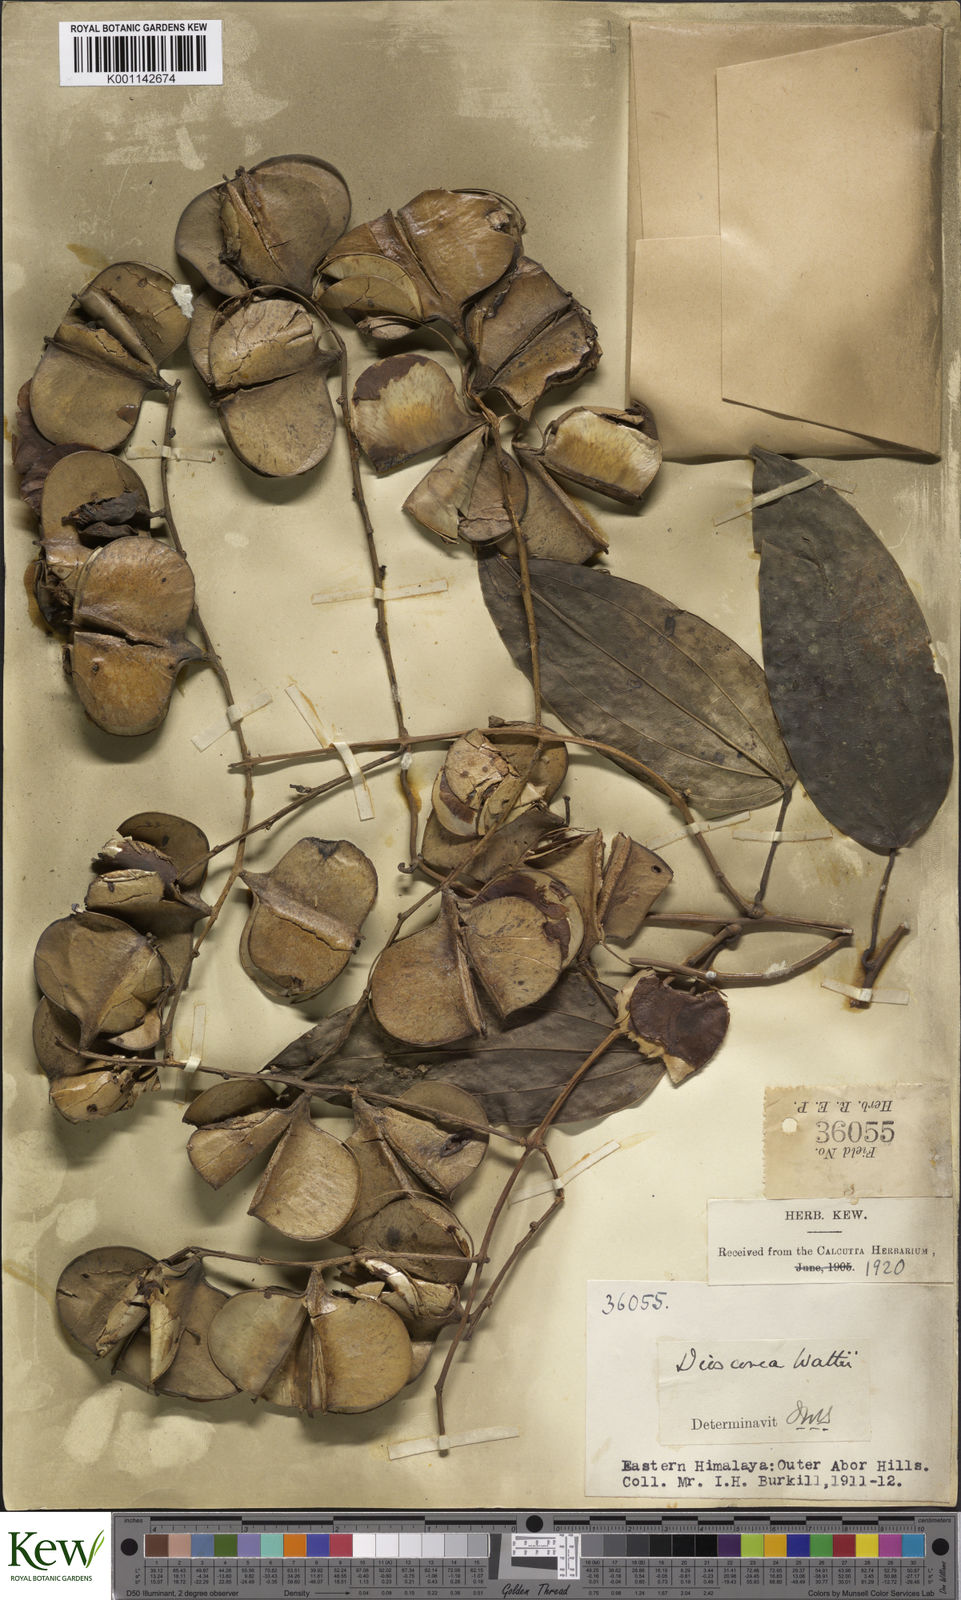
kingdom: Plantae
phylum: Tracheophyta
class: Liliopsida
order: Dioscoreales
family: Dioscoreaceae
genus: Dioscorea
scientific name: Dioscorea wattii
